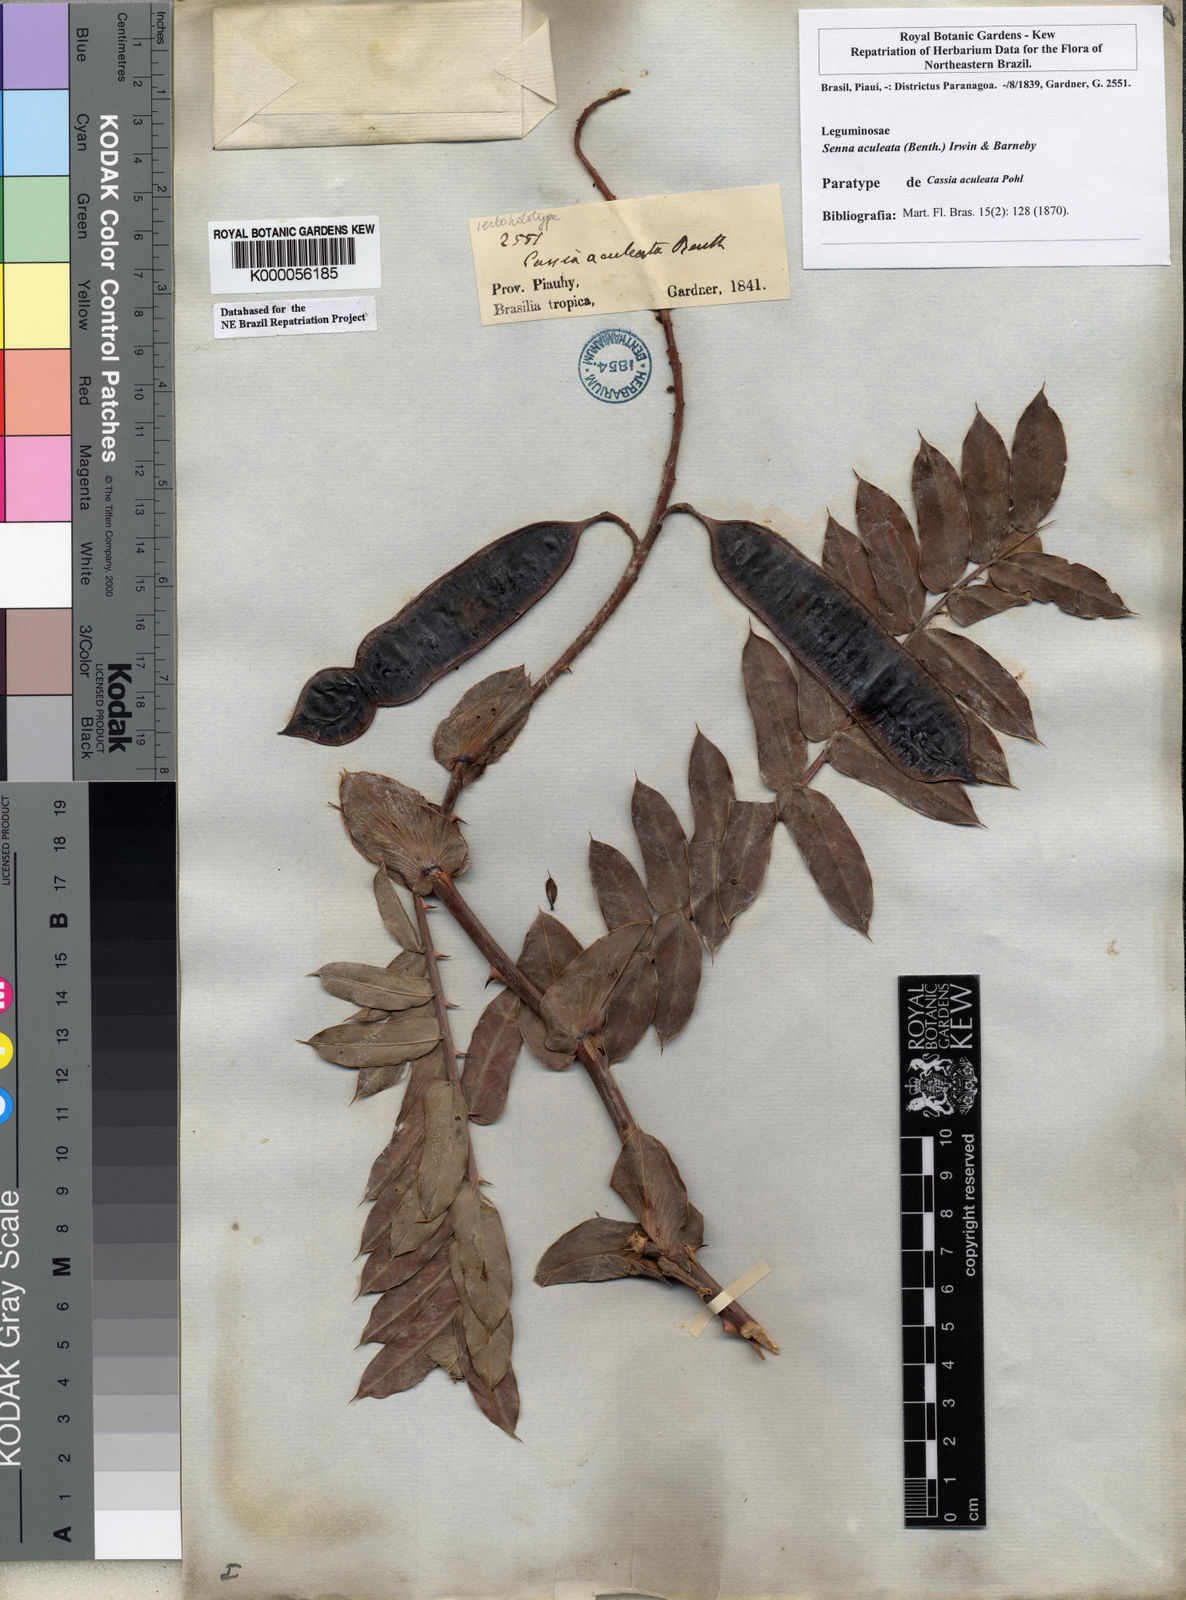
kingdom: Plantae
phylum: Tracheophyta
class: Magnoliopsida
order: Fabales
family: Fabaceae
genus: Senna
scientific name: Senna aculeata
